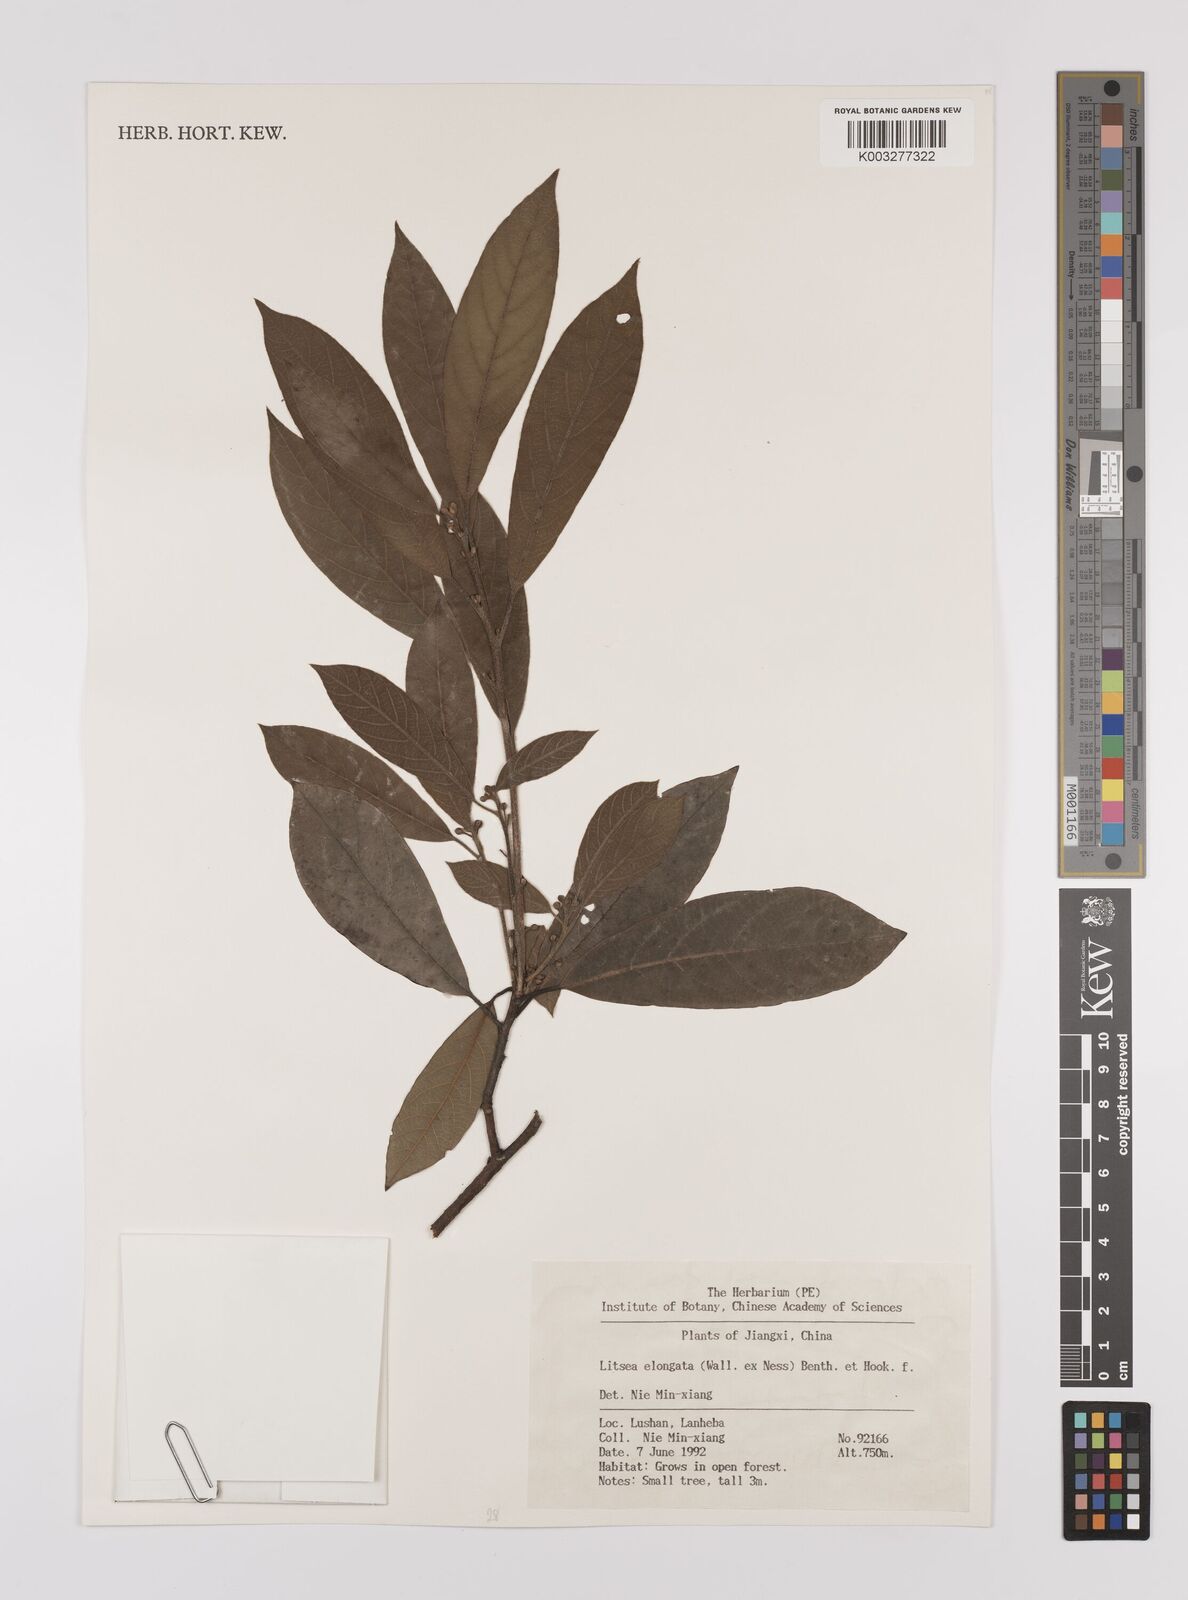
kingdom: Plantae
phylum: Tracheophyta
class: Magnoliopsida
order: Laurales
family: Lauraceae
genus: Litsea
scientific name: Litsea elongata
